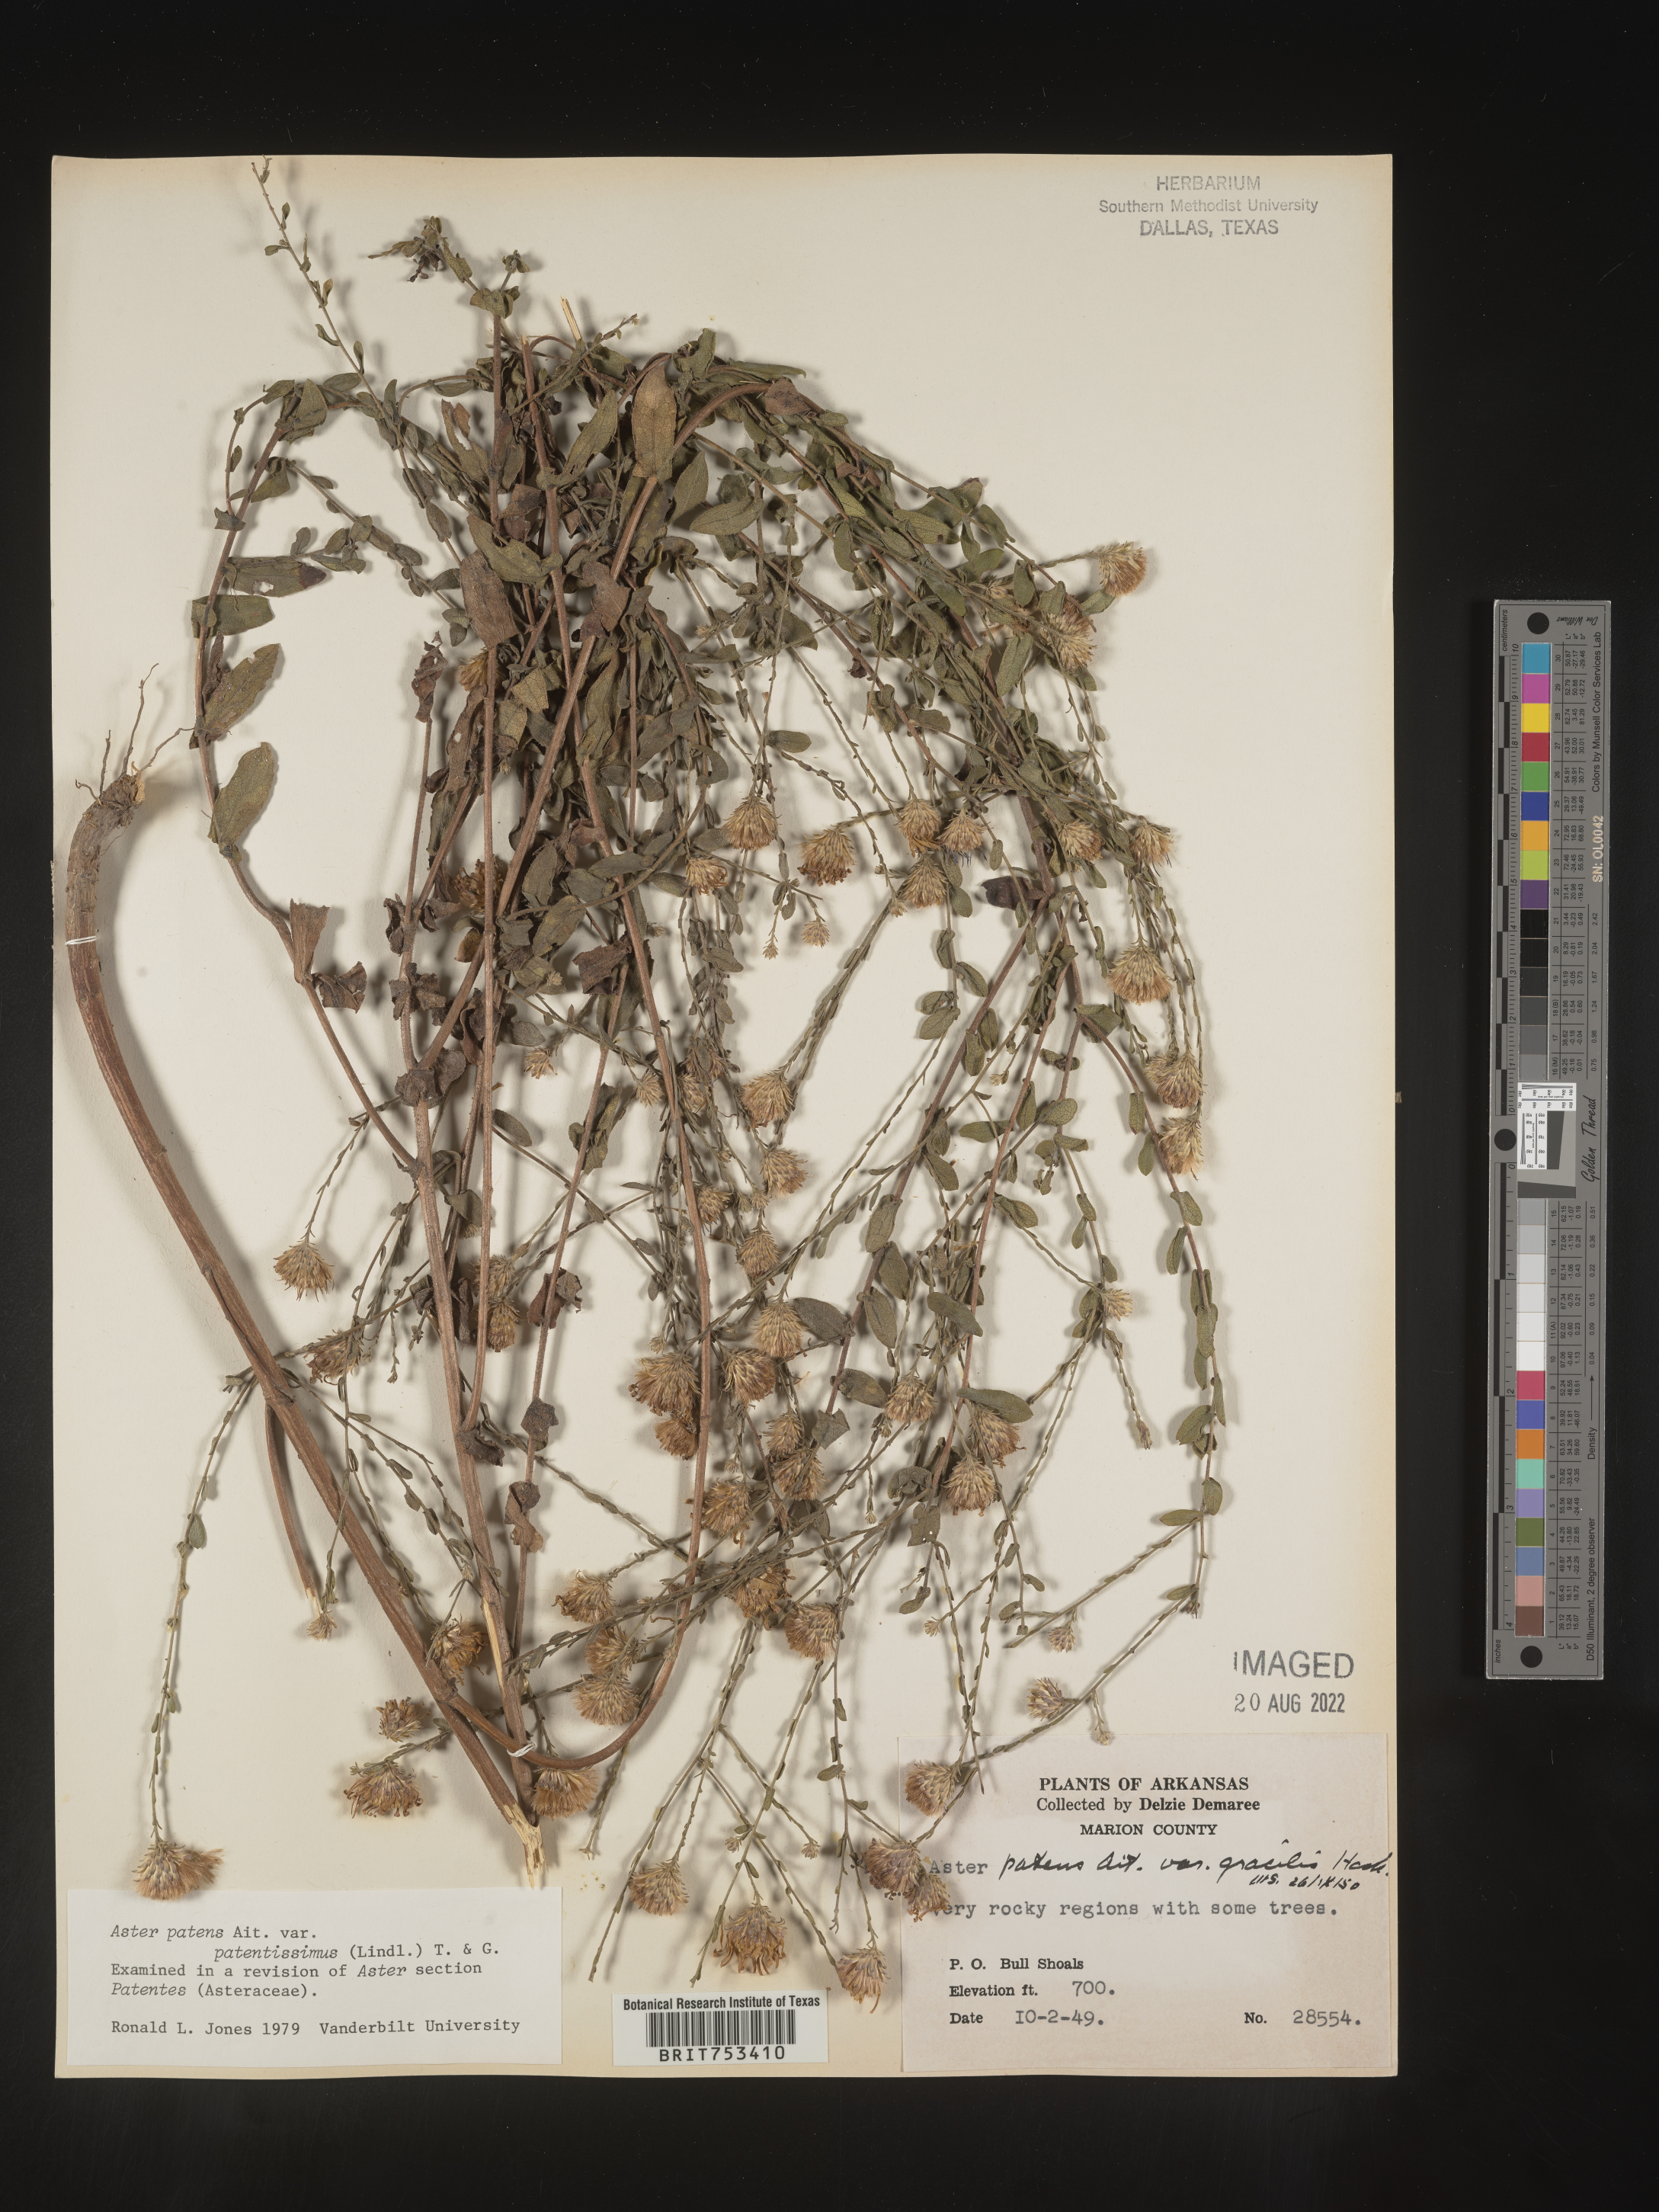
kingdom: Plantae
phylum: Tracheophyta
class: Magnoliopsida
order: Asterales
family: Asteraceae
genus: Symphyotrichum
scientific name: Symphyotrichum patens
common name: Late purple aster
